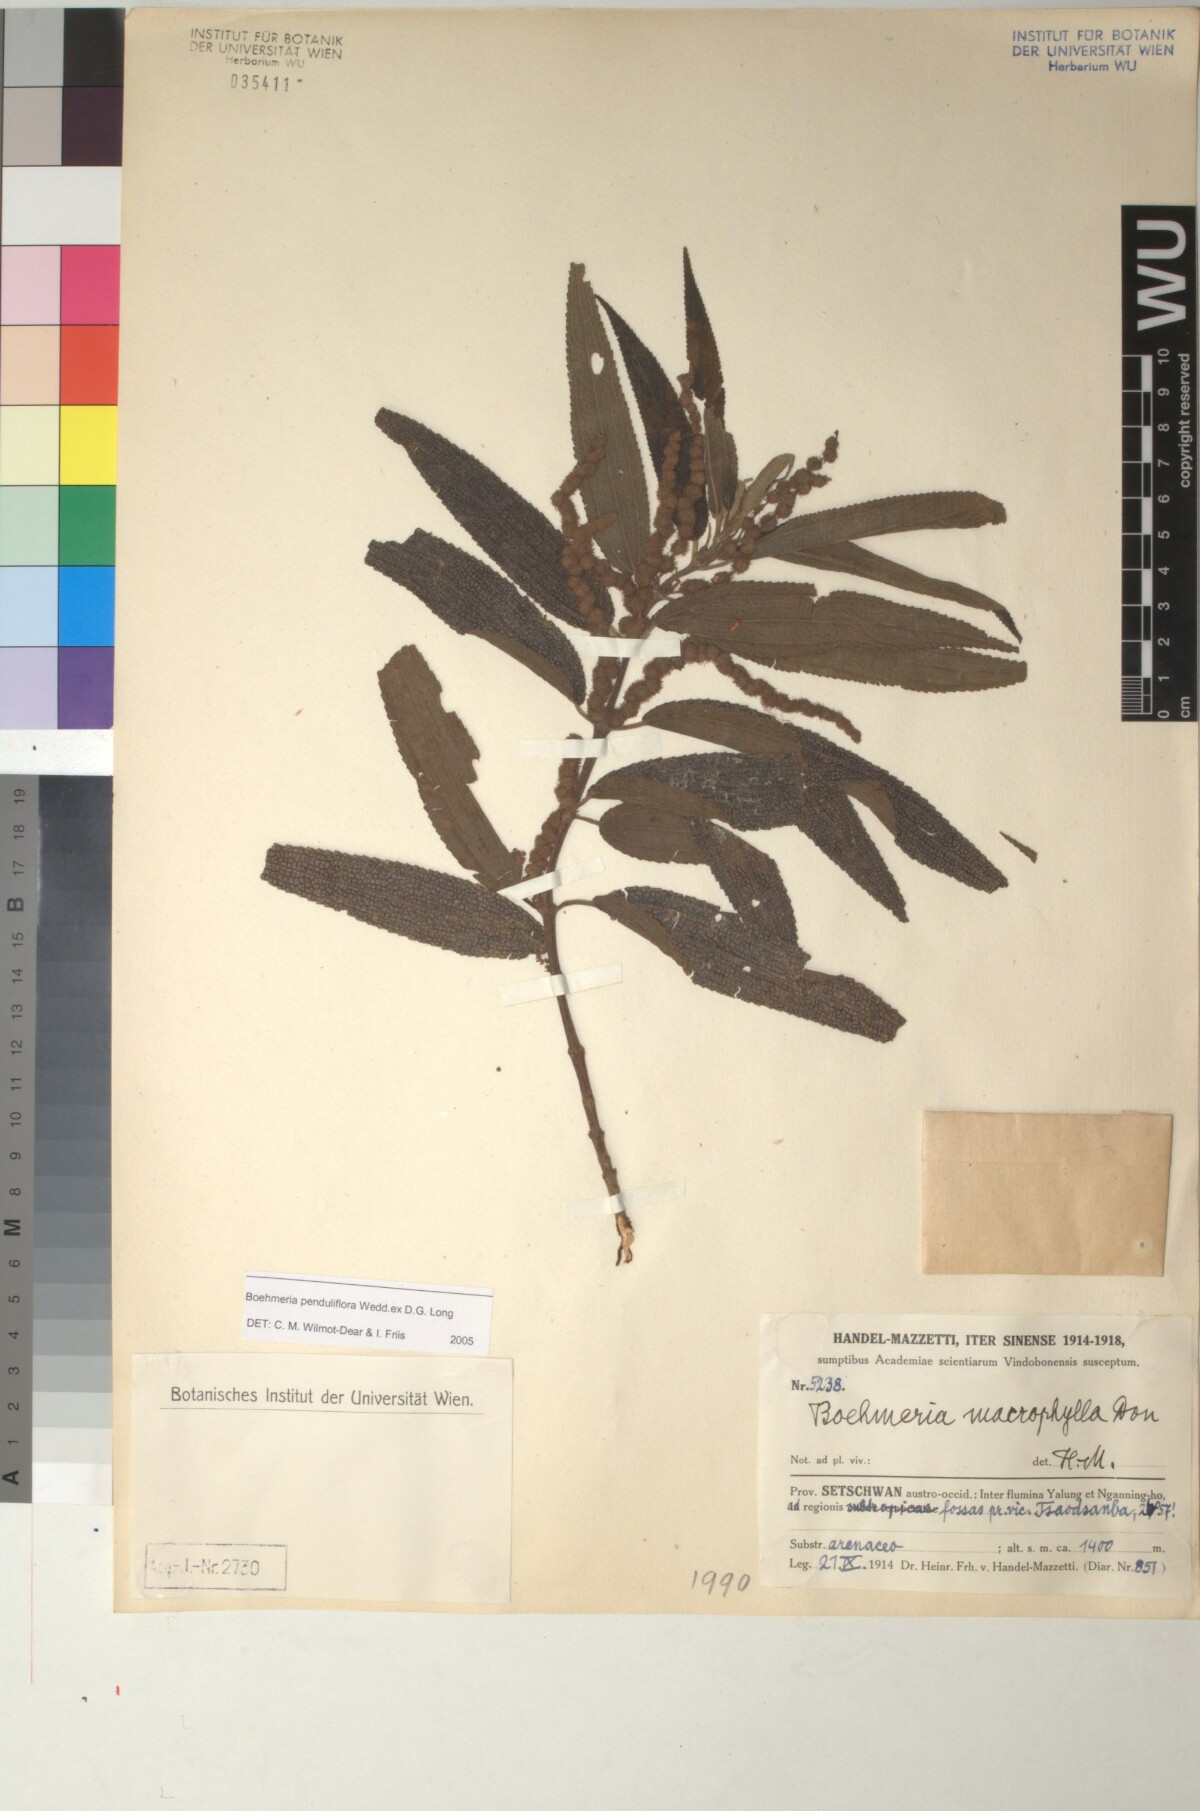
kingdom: Plantae
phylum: Tracheophyta
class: Magnoliopsida
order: Rosales
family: Urticaceae
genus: Boehmeria
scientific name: Boehmeria penduliflora
